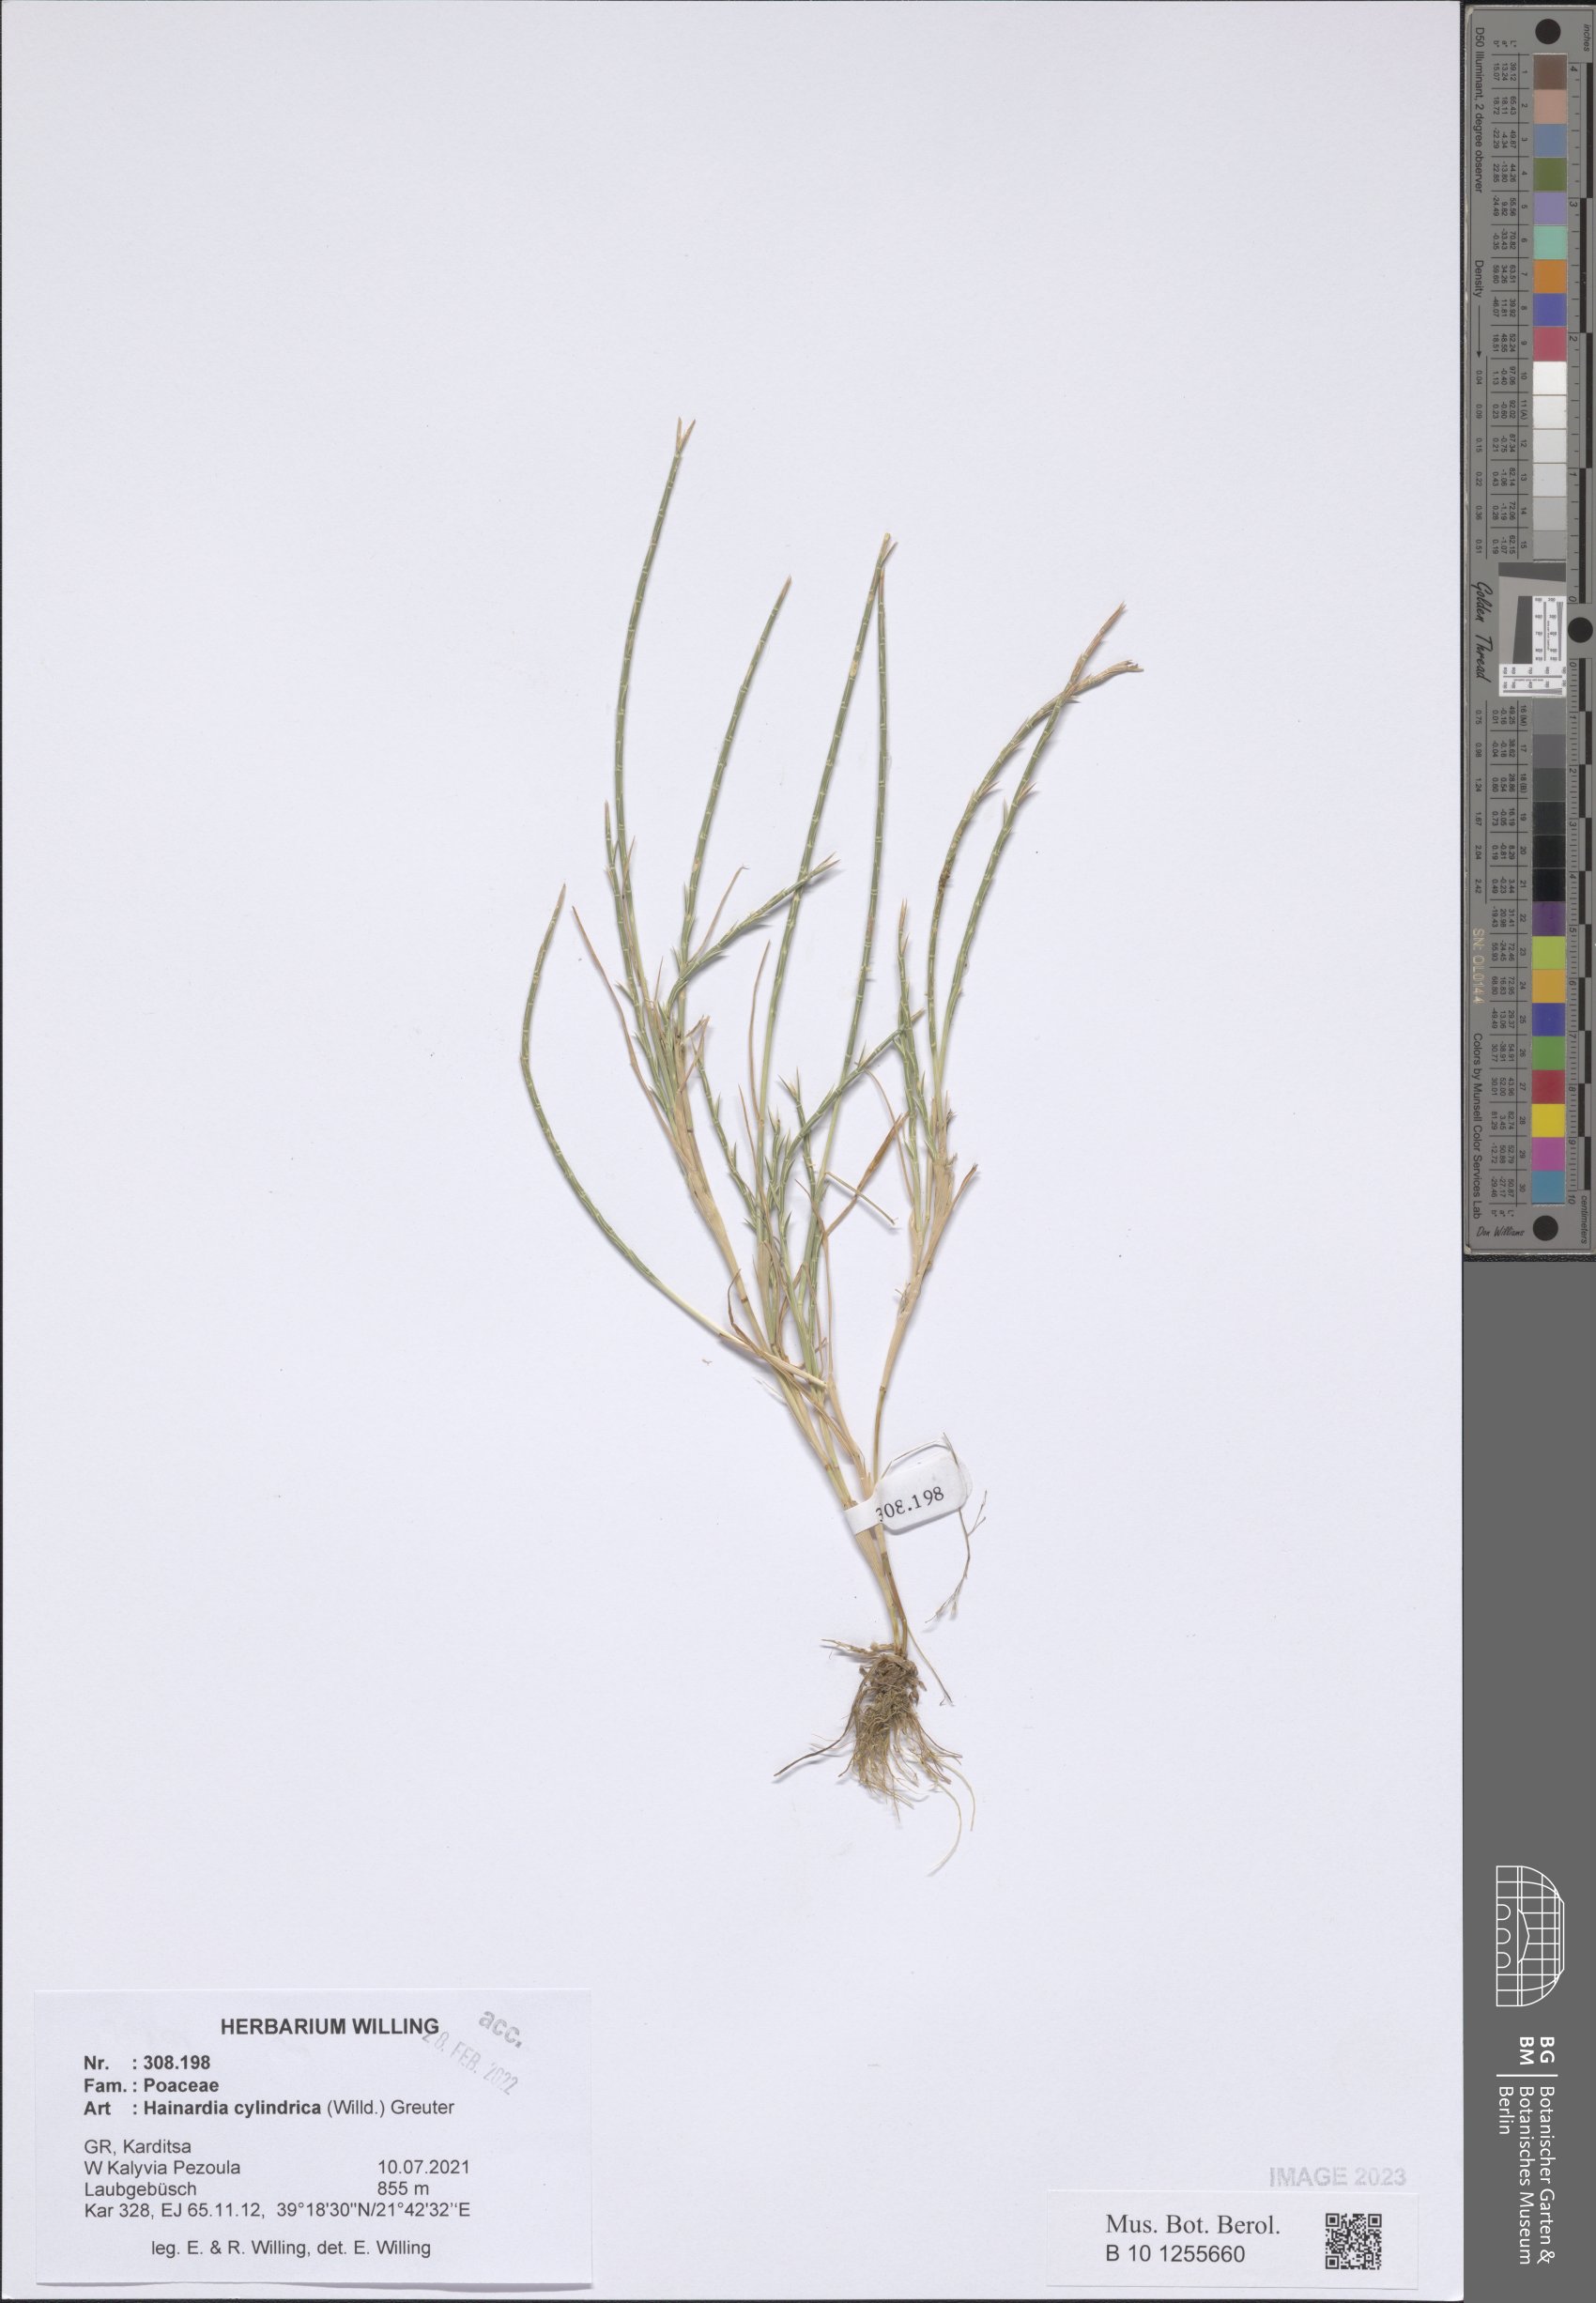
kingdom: Plantae
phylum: Tracheophyta
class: Liliopsida
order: Poales
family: Poaceae
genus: Parapholis
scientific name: Parapholis cylindrica
